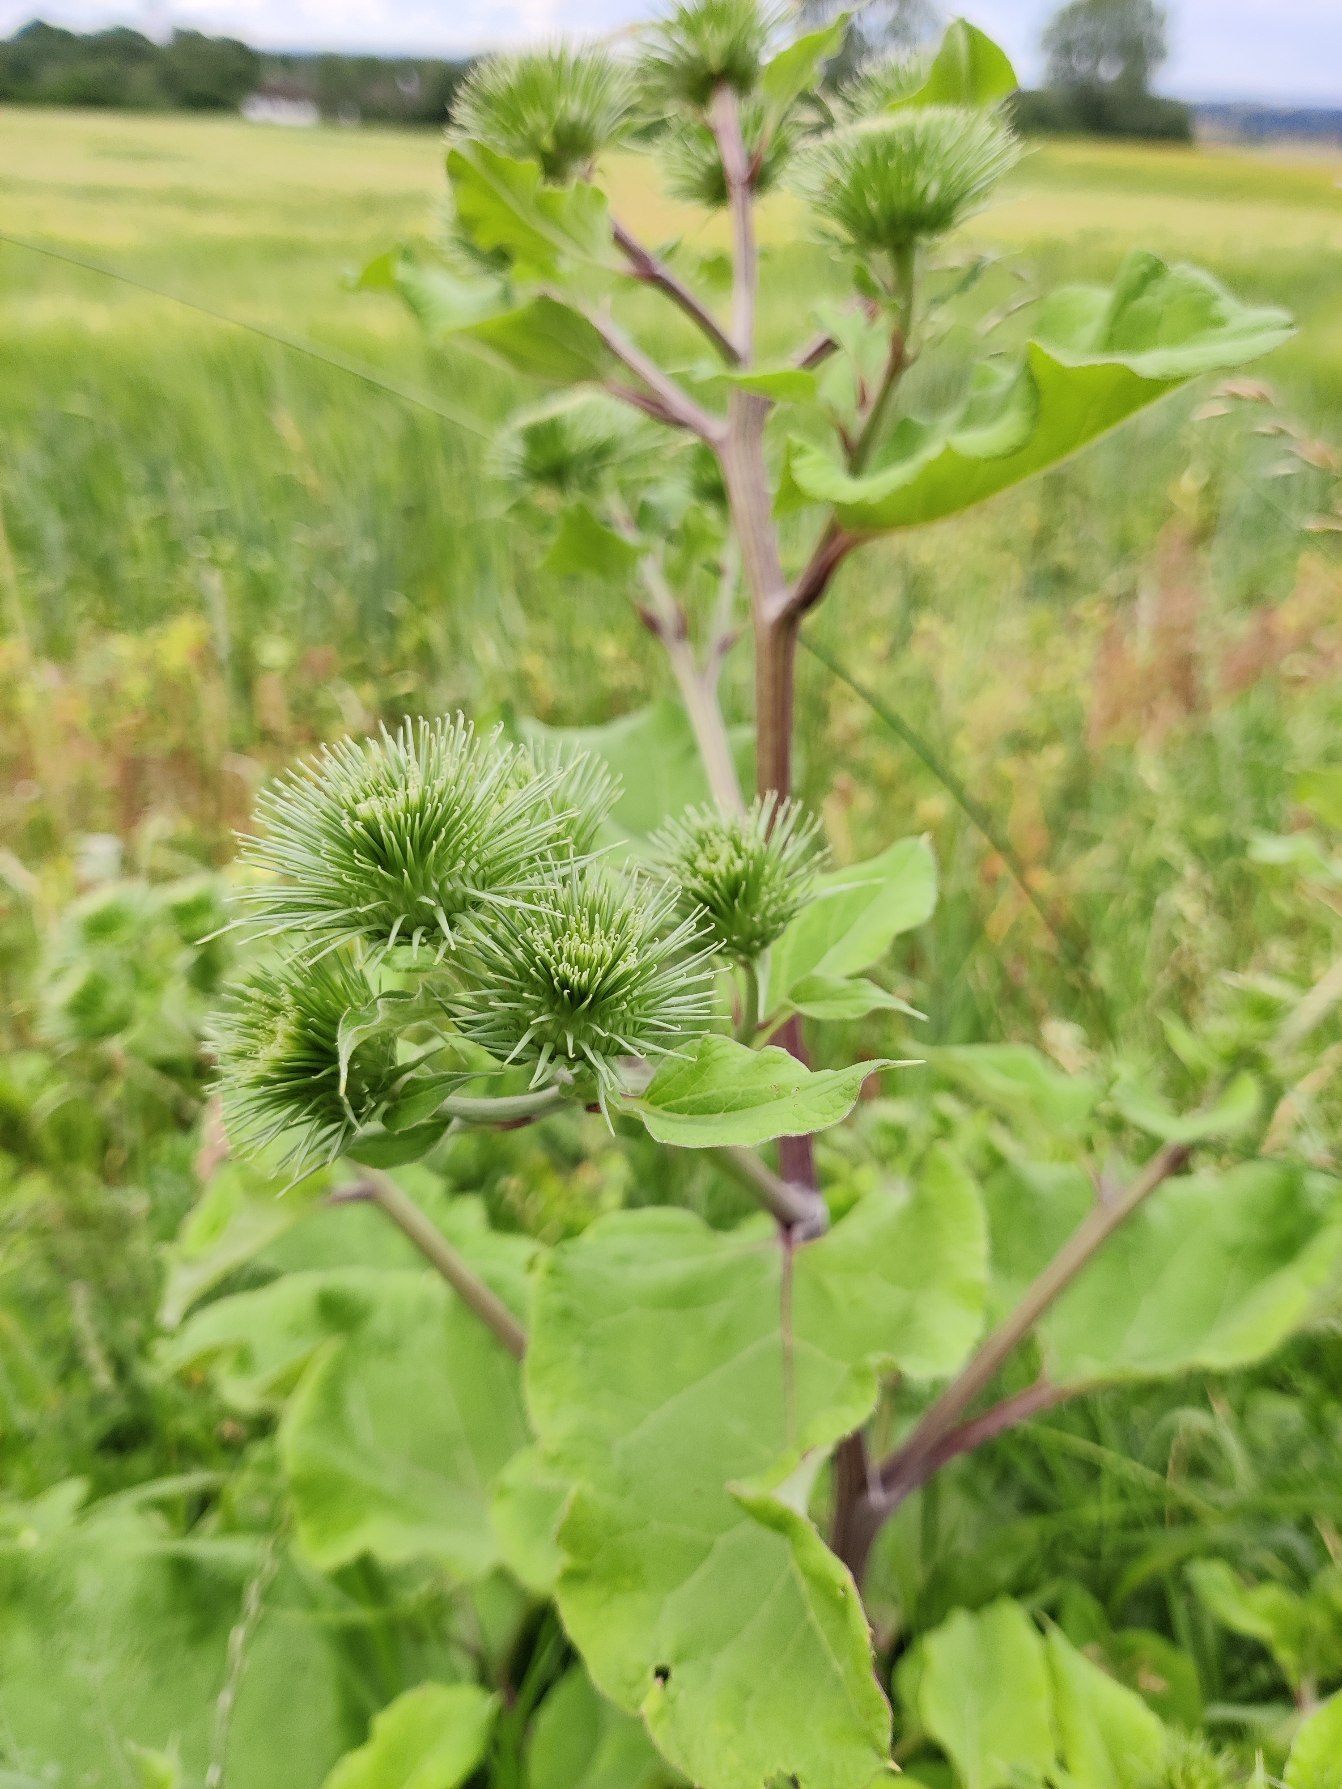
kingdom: Plantae
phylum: Tracheophyta
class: Magnoliopsida
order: Asterales
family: Asteraceae
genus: Arctium
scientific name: Arctium lappa
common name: Glat burre
